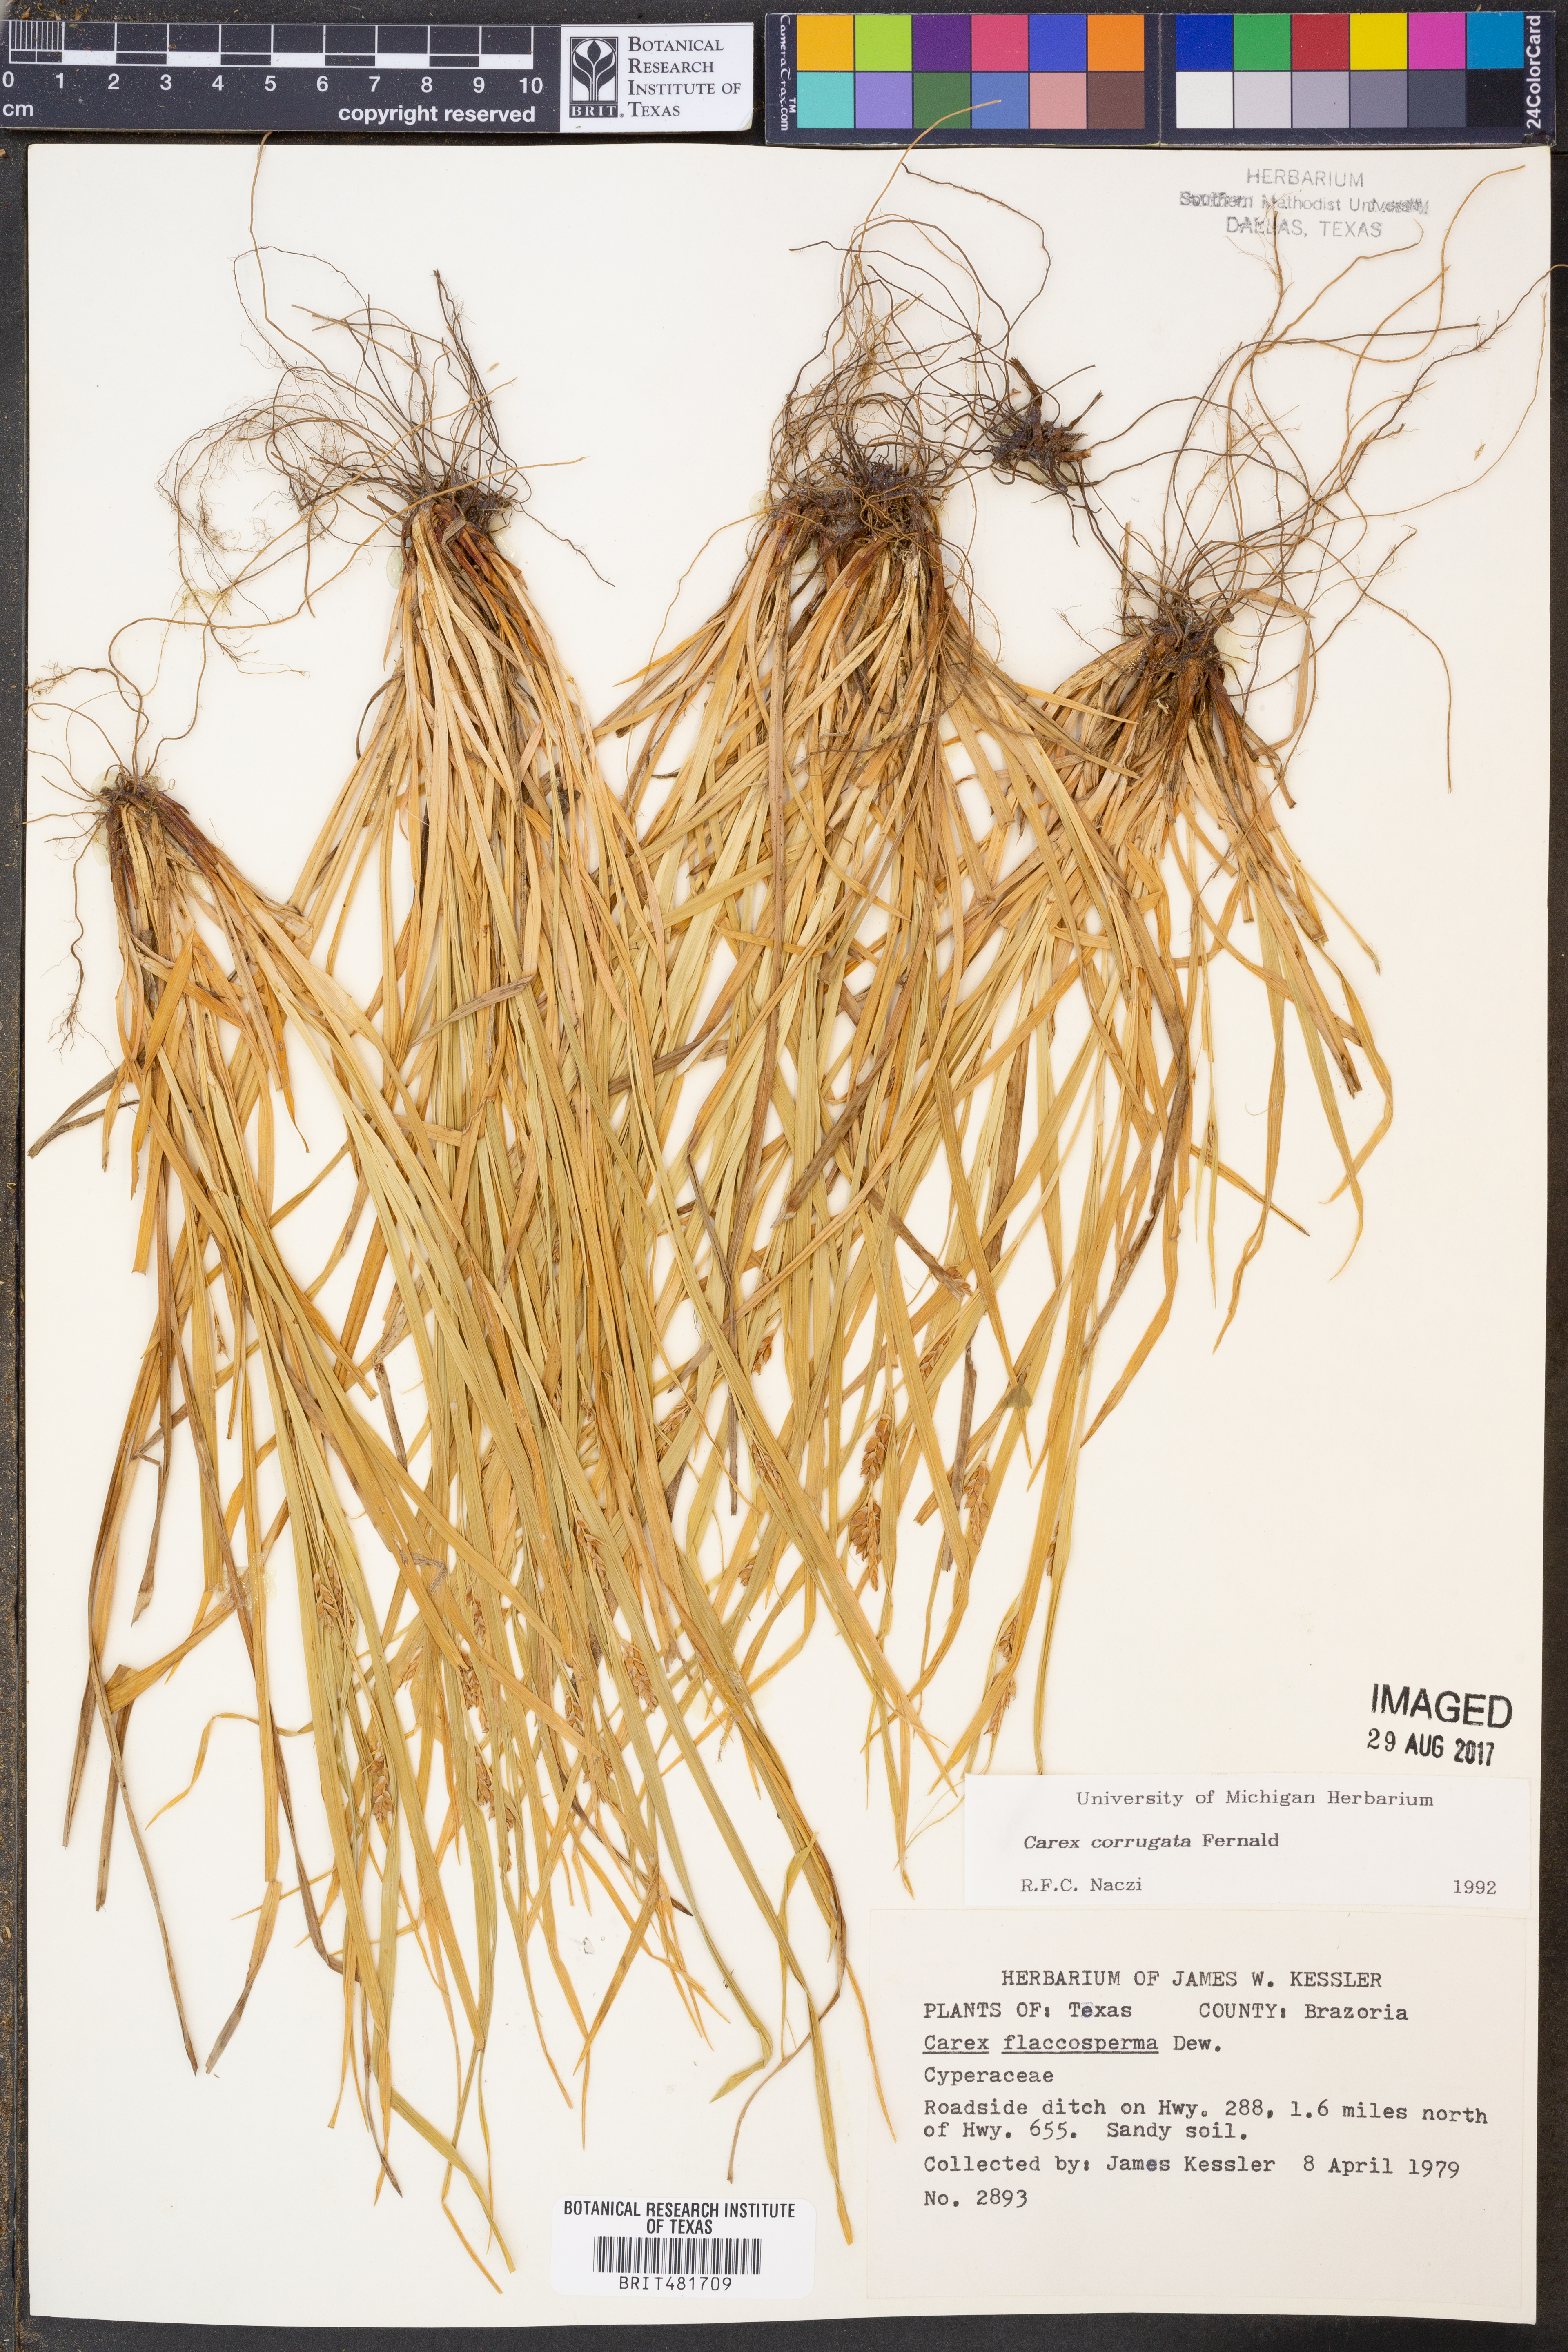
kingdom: Plantae
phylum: Tracheophyta
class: Liliopsida
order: Poales
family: Cyperaceae
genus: Carex
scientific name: Carex corrugata
